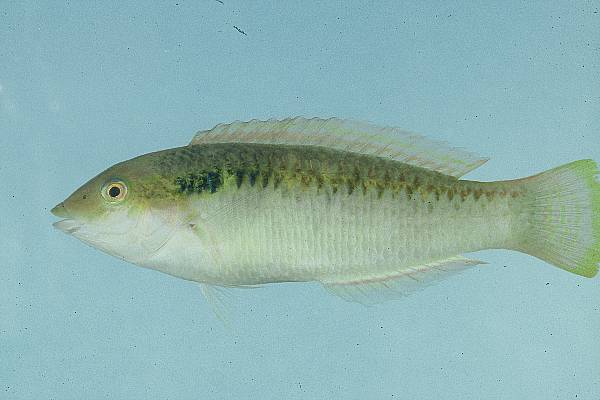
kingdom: Animalia
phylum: Chordata
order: Perciformes
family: Labridae
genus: Halichoeres
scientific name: Halichoeres scapularis
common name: Brownbanded wrasse
